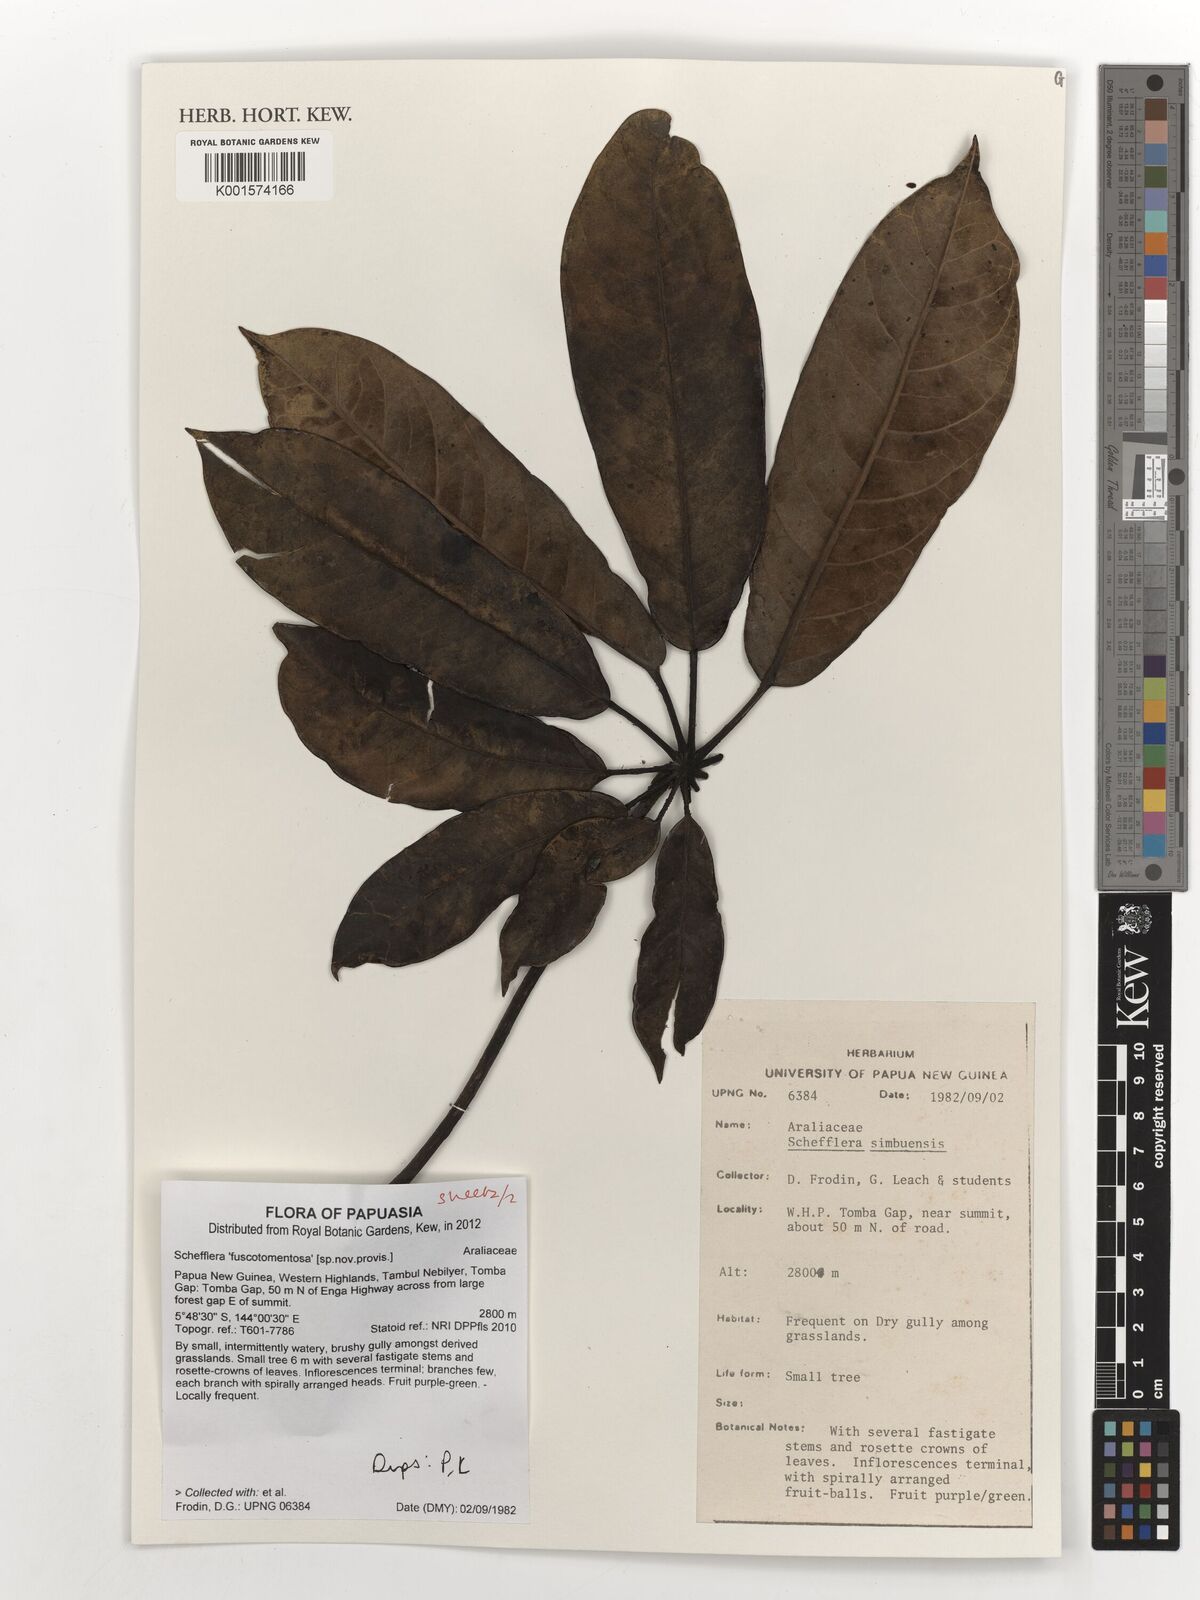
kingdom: Plantae
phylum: Tracheophyta
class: Magnoliopsida
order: Apiales
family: Araliaceae
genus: Schefflera
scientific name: Schefflera
